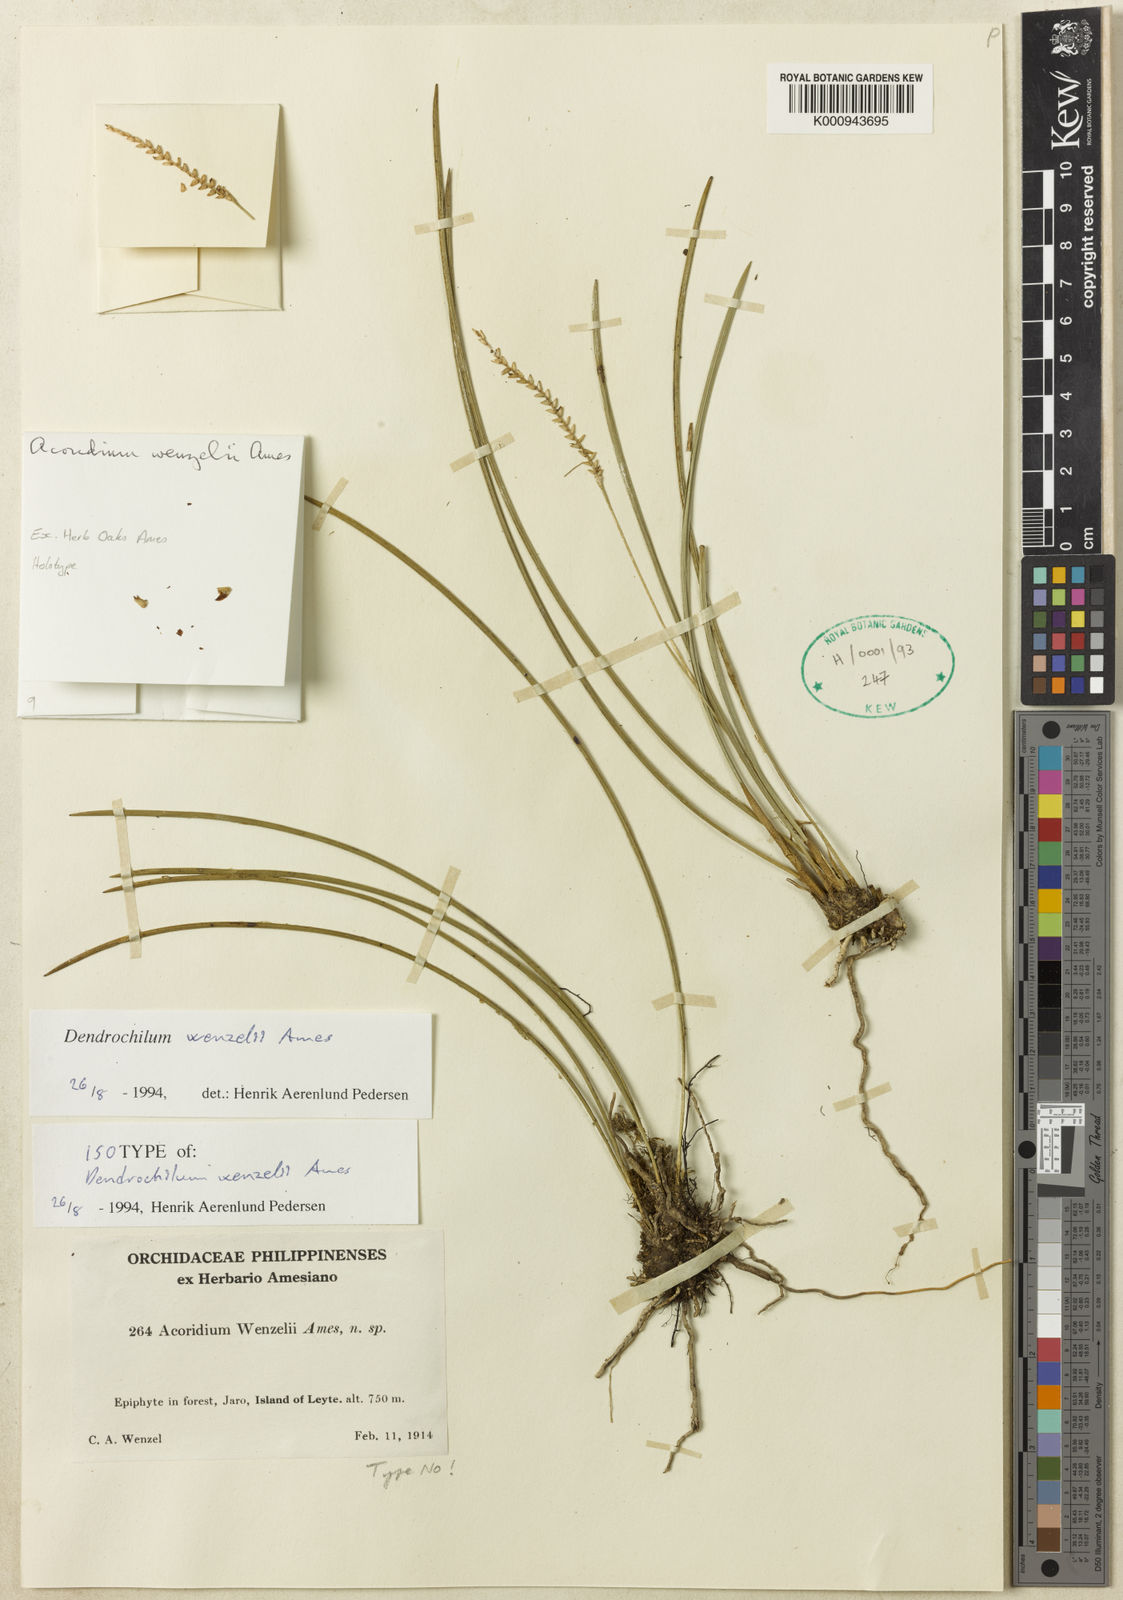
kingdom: Plantae
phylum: Tracheophyta
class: Liliopsida
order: Asparagales
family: Orchidaceae
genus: Coelogyne
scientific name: Coelogyne wenzelii
